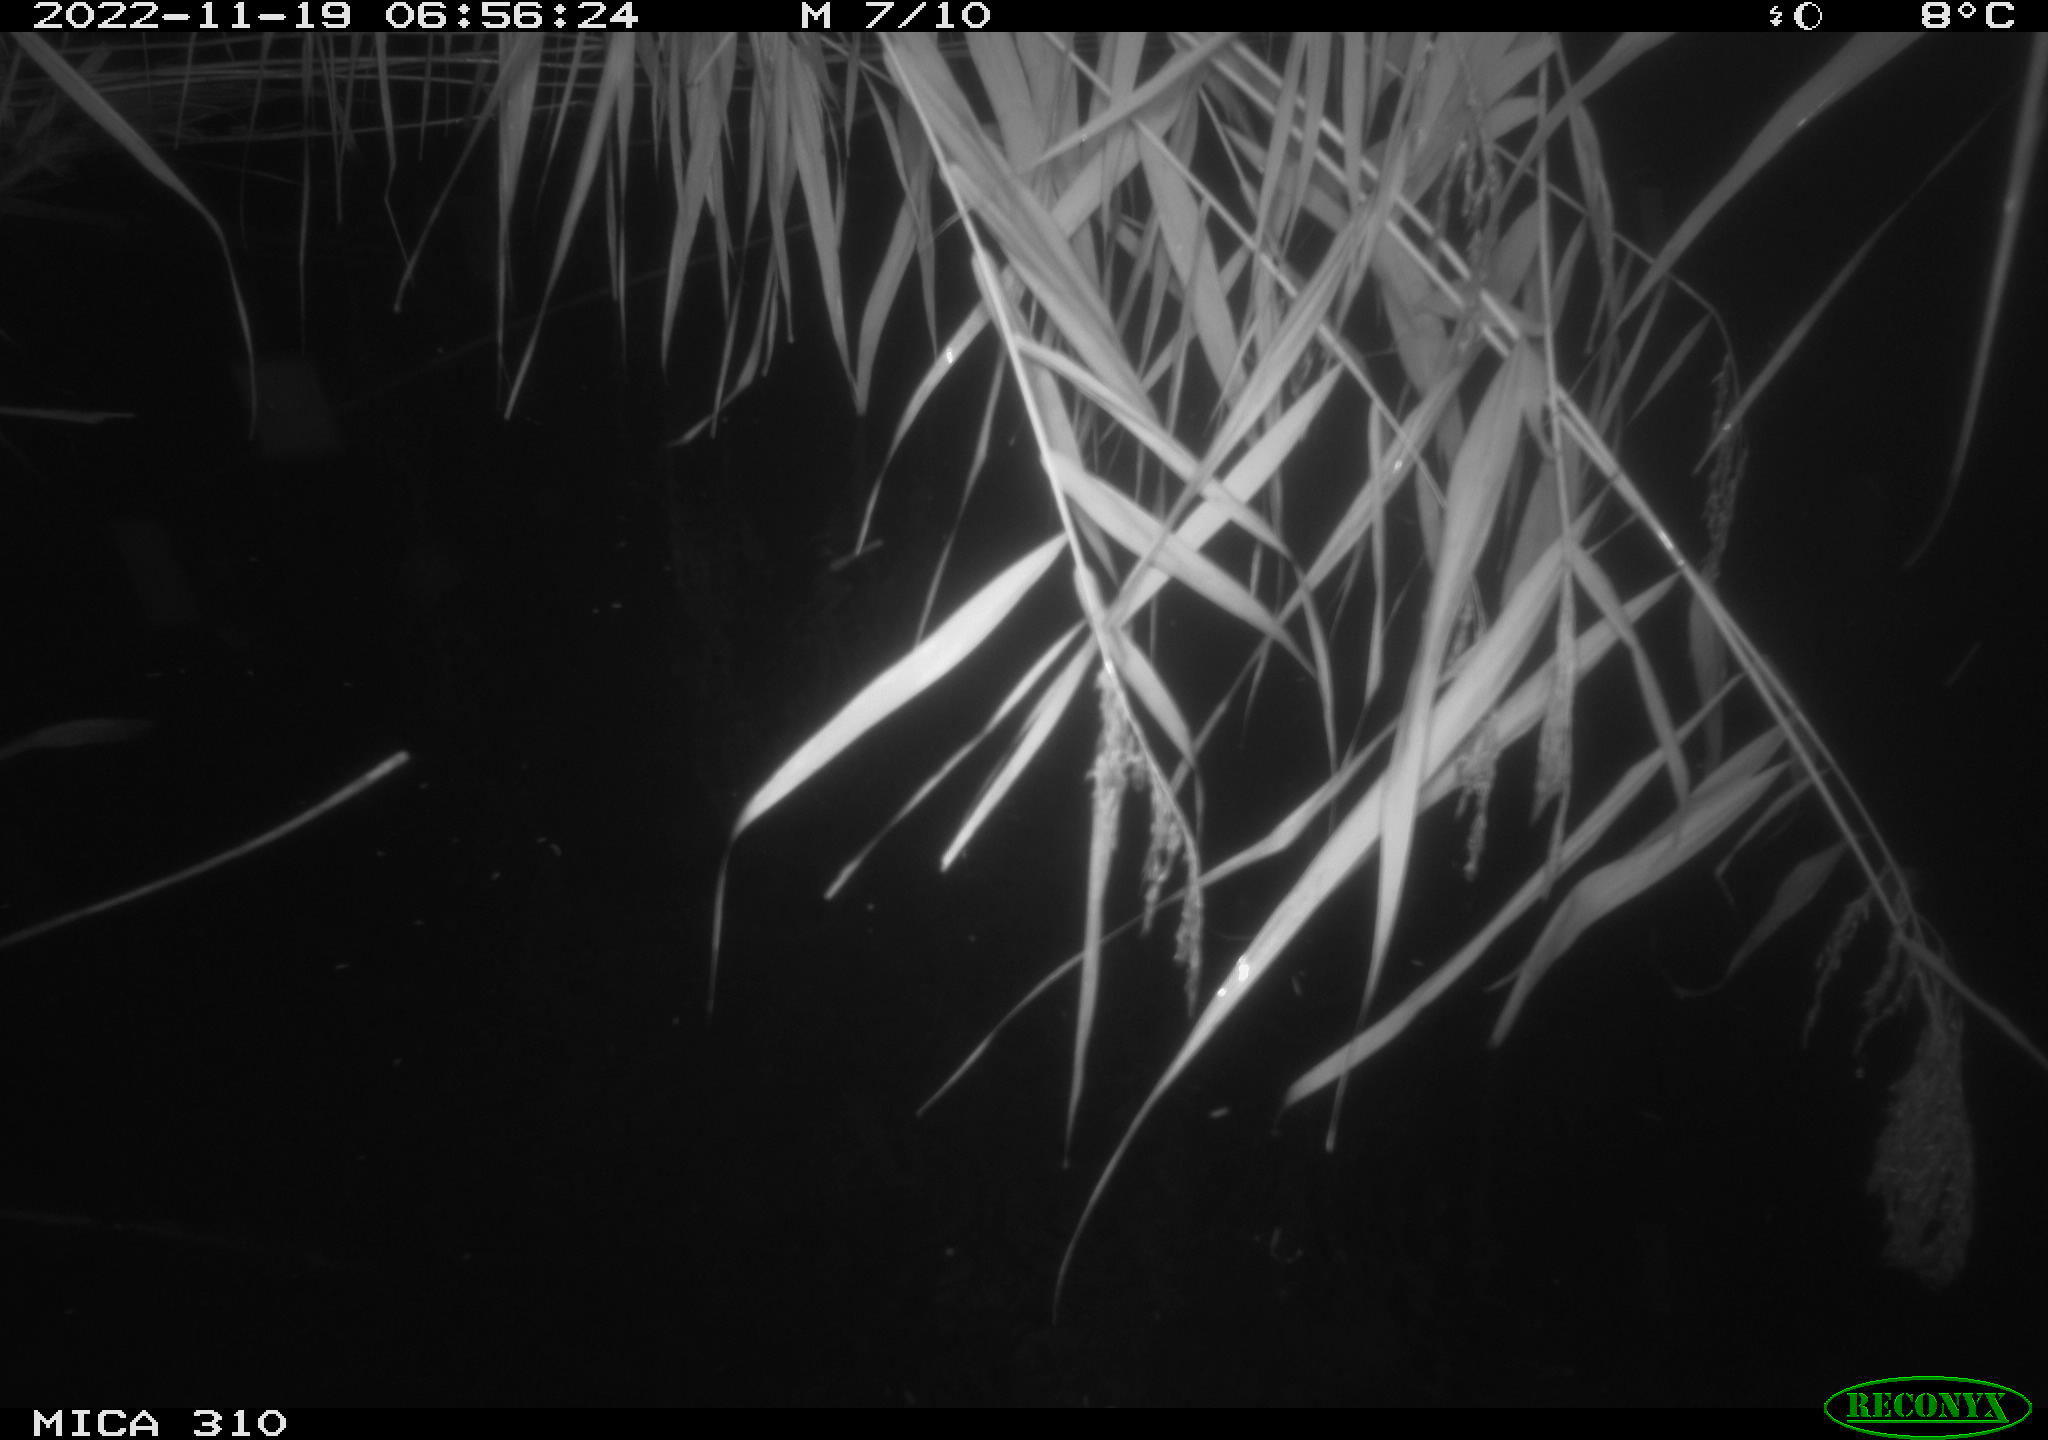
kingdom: Animalia
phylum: Chordata
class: Mammalia
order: Rodentia
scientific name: Rodentia
